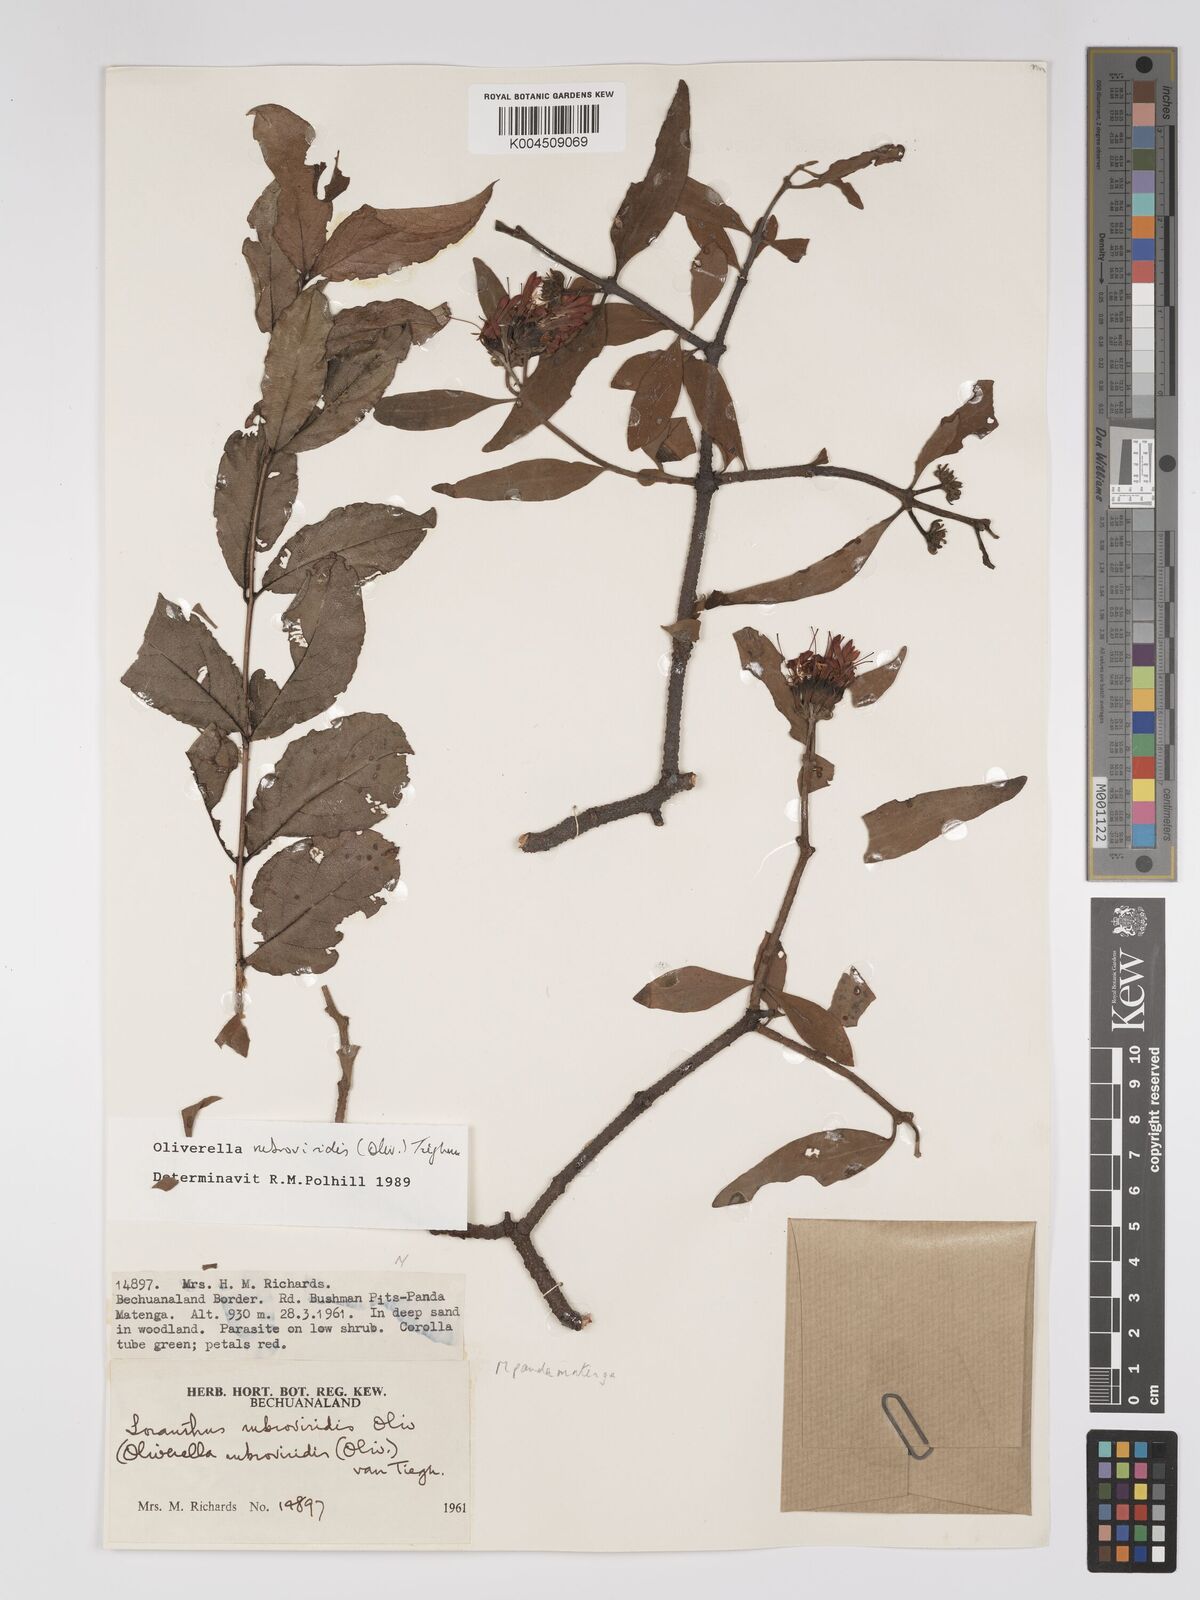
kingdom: Plantae
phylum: Tracheophyta
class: Magnoliopsida
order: Santalales
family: Loranthaceae
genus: Oliverella
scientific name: Oliverella rubroviridis
